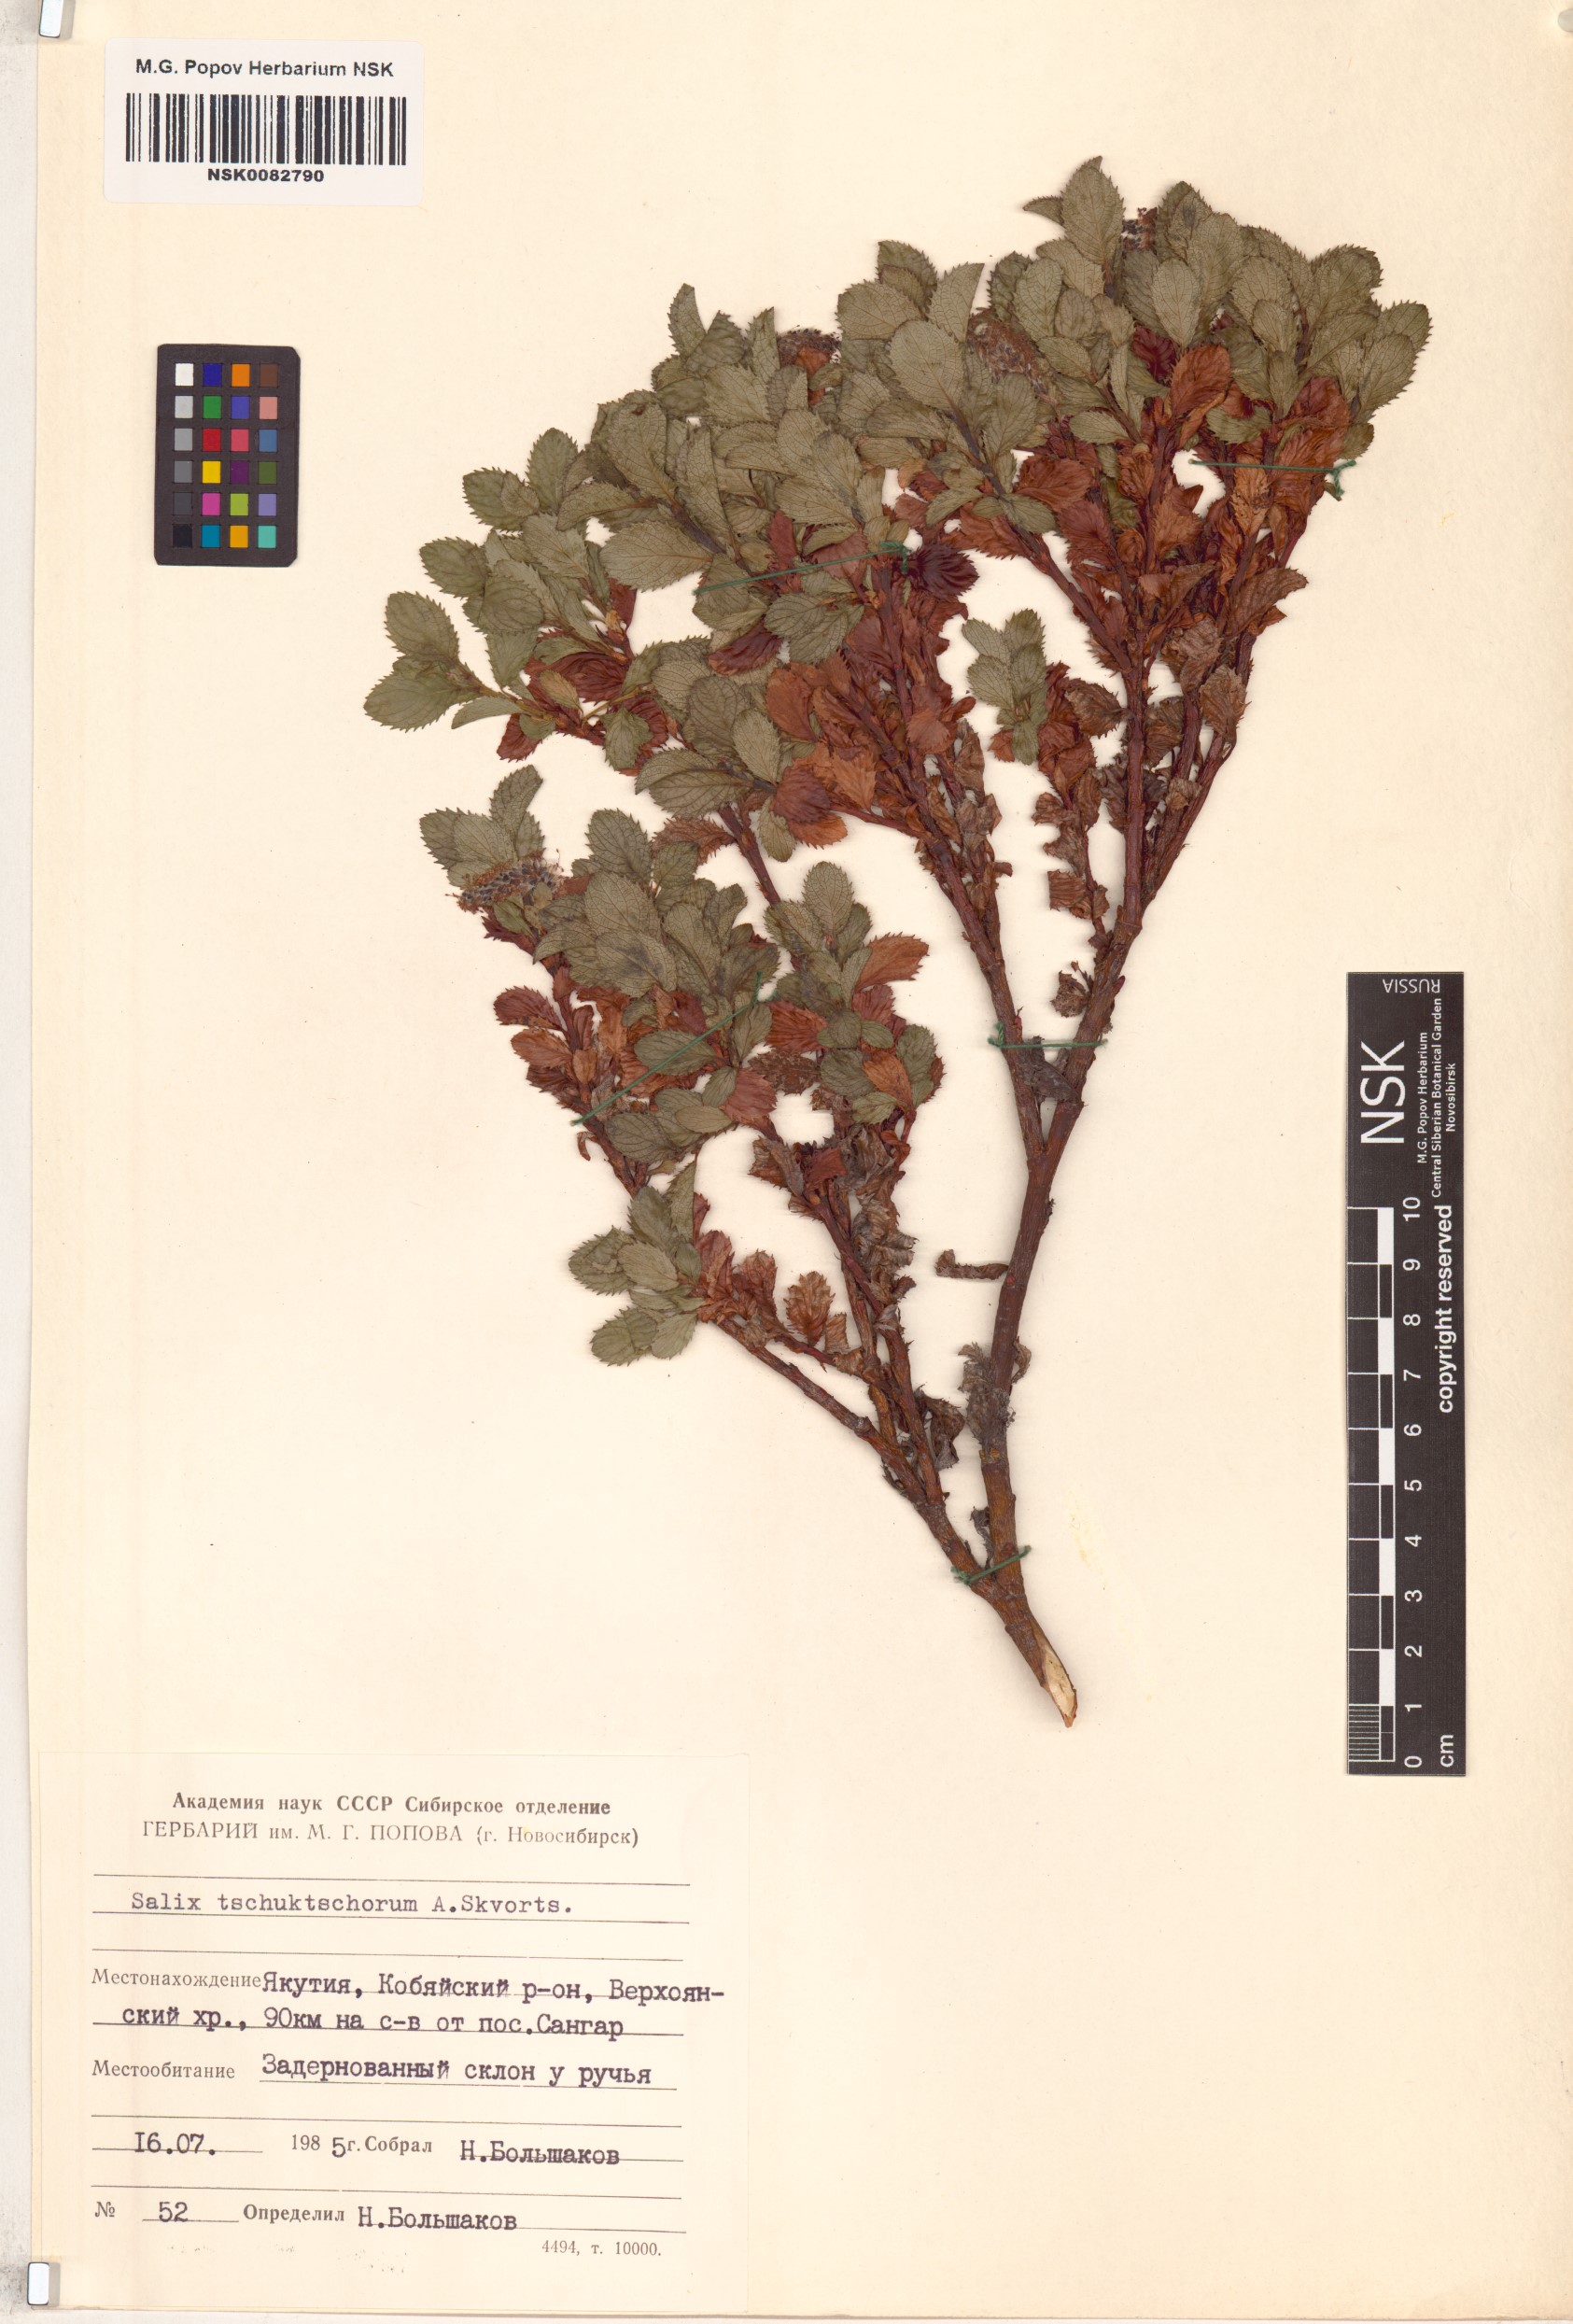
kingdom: Plantae
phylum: Tracheophyta
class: Magnoliopsida
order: Malpighiales
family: Salicaceae
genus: Salix
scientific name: Salix tschuktschorum
